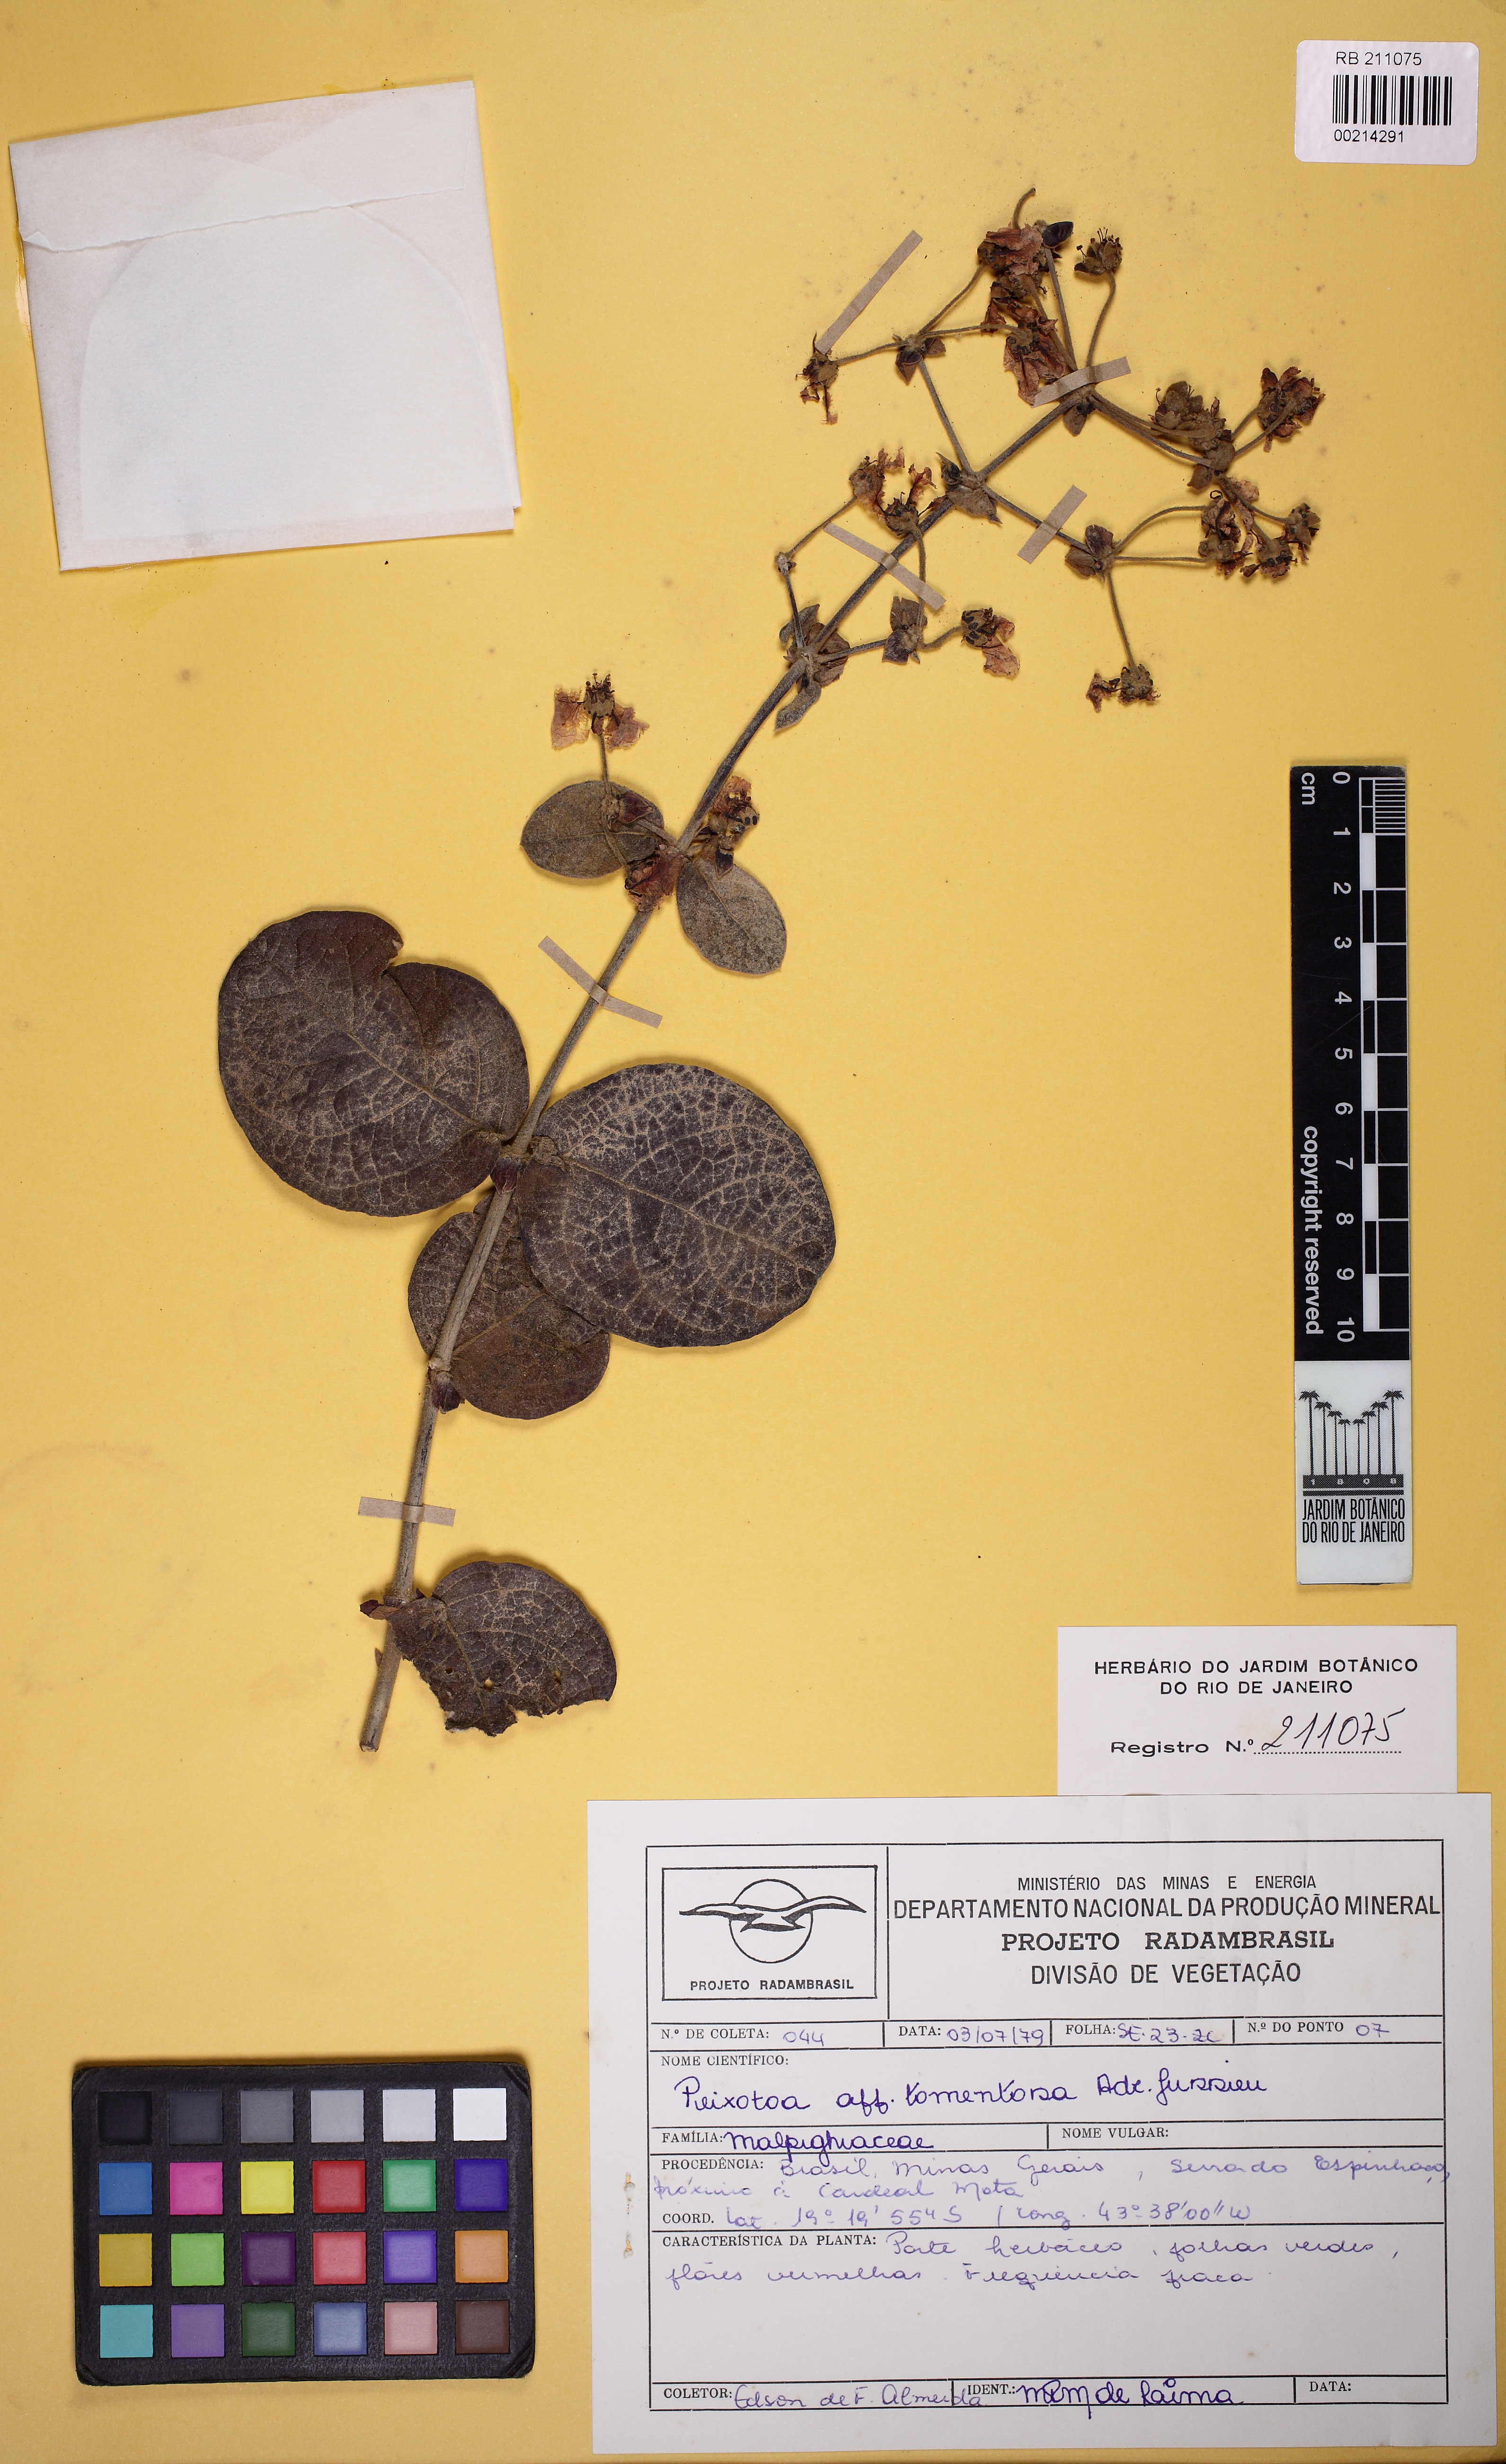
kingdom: Plantae
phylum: Tracheophyta
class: Magnoliopsida
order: Malpighiales
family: Malpighiaceae
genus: Peixotoa
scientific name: Peixotoa tomentosa
